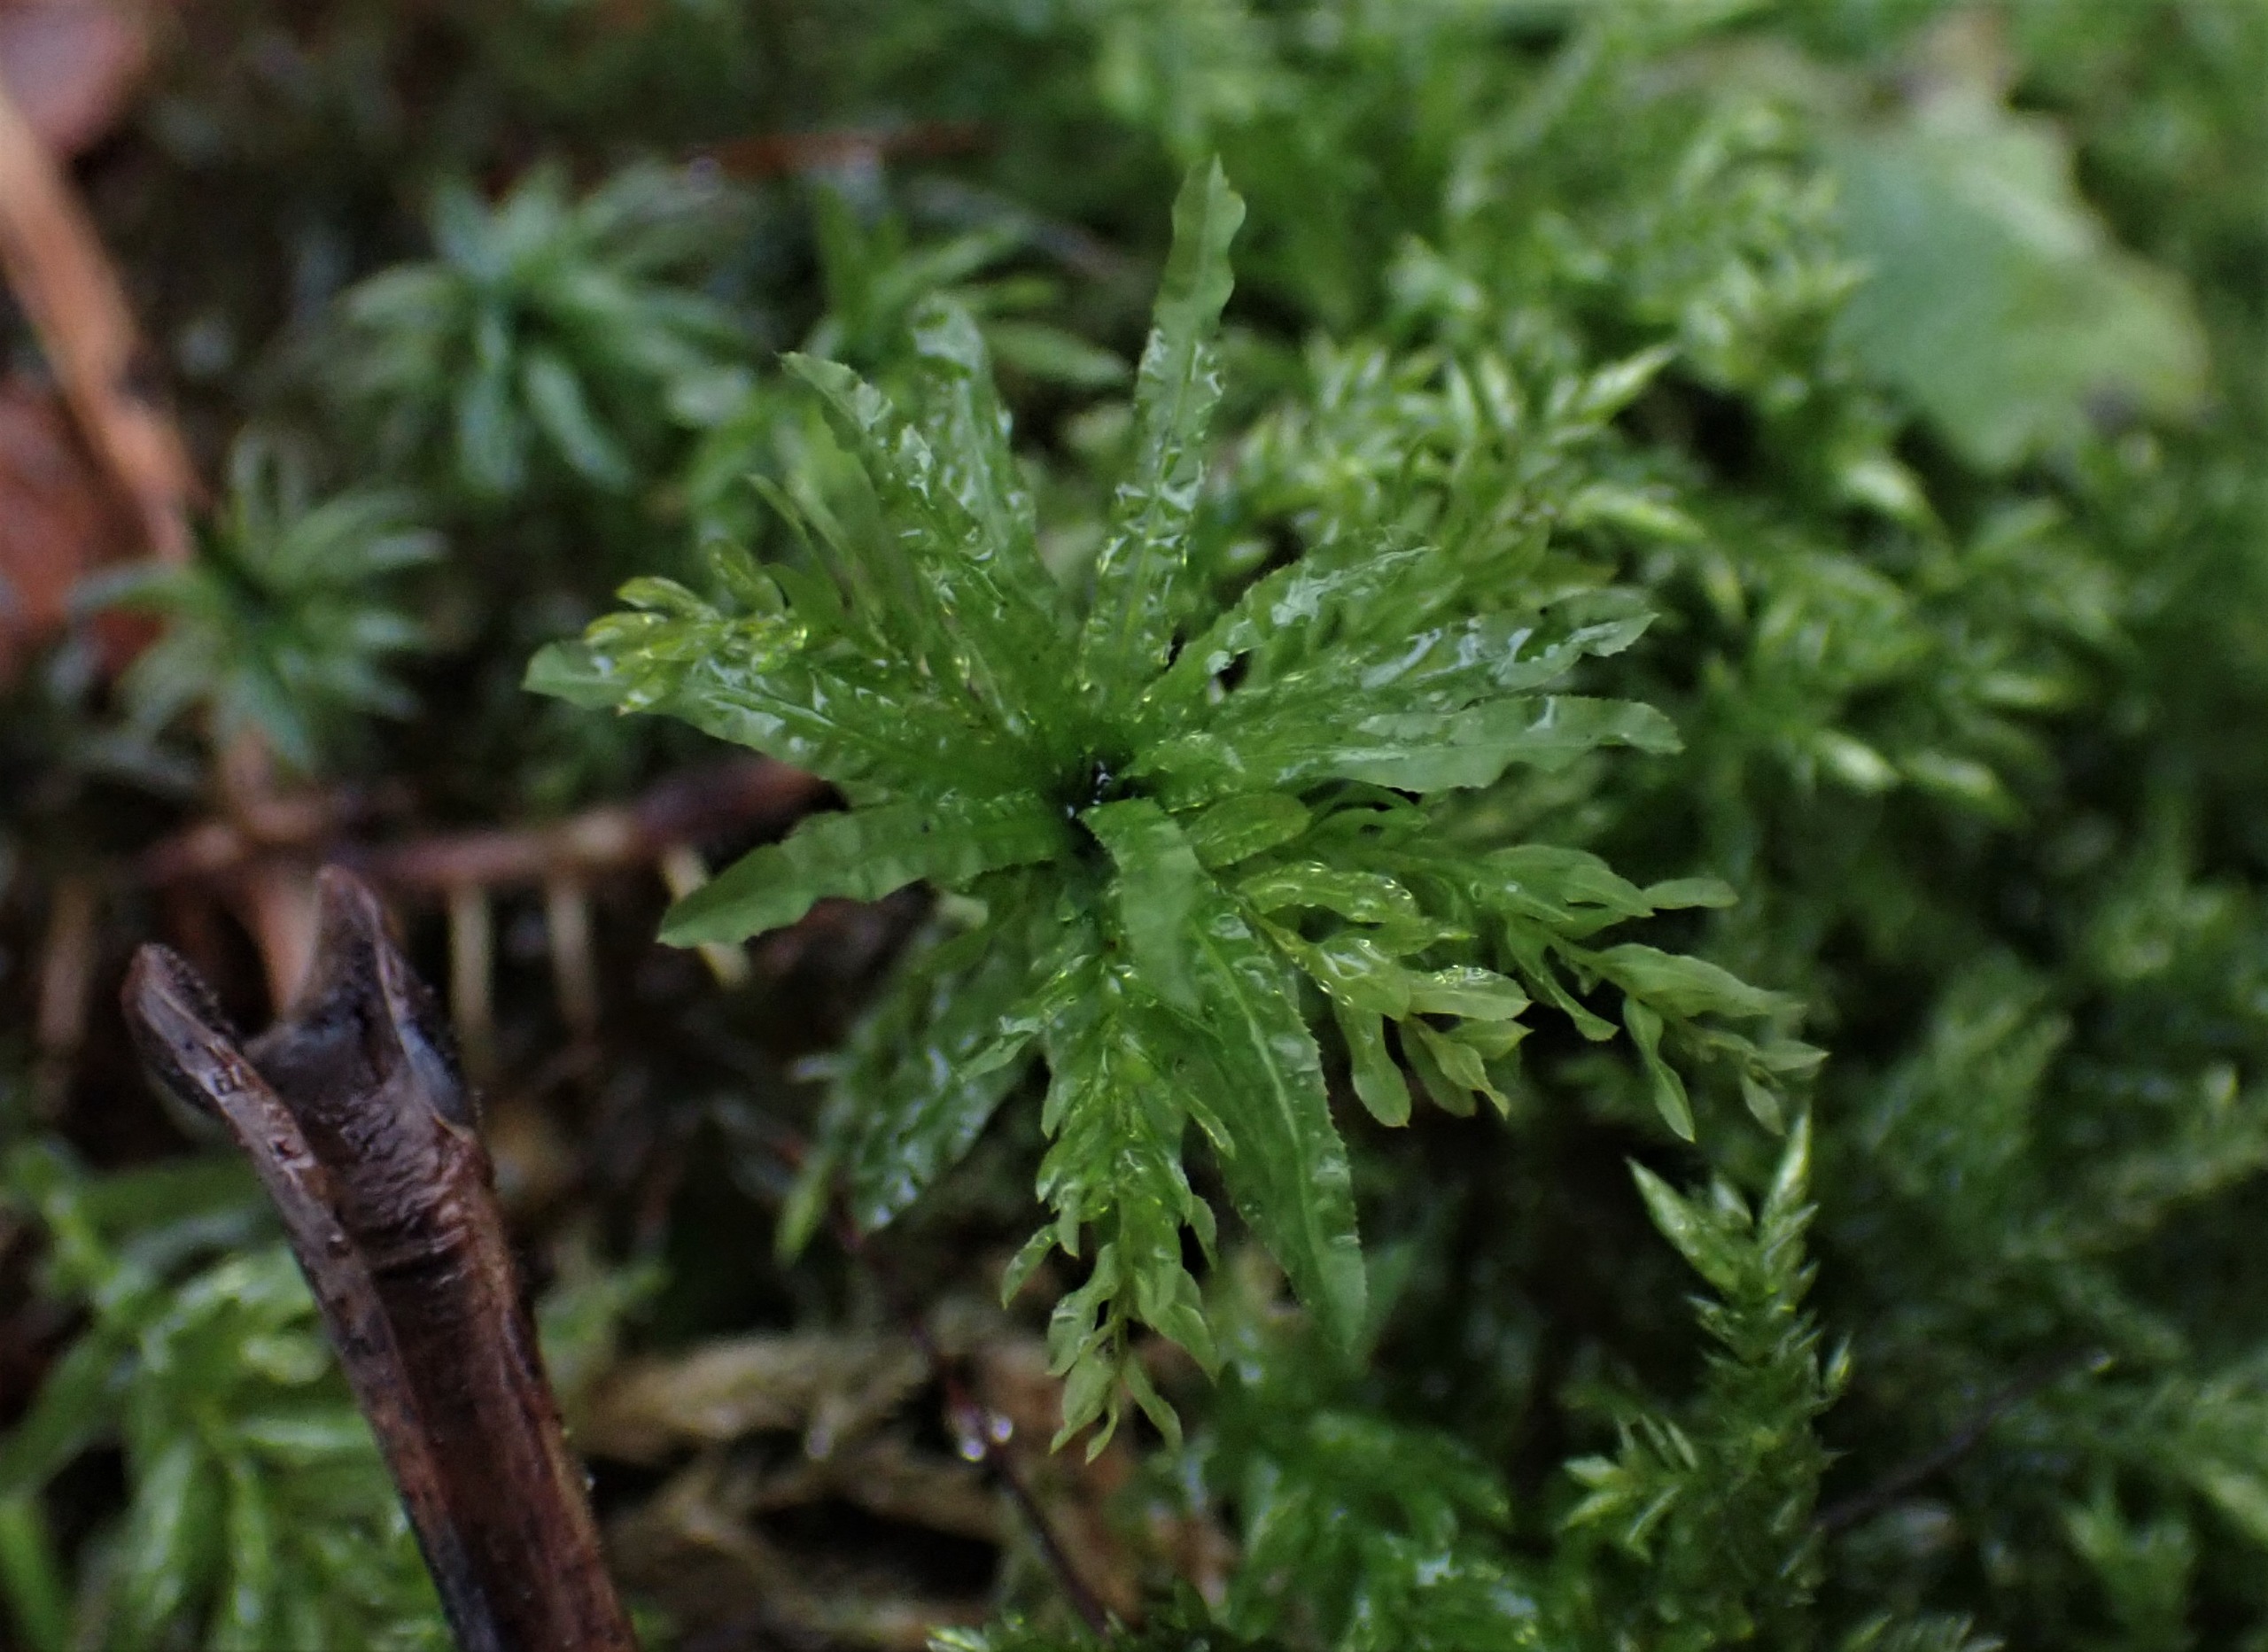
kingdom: Plantae
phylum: Bryophyta
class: Bryopsida
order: Bryales
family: Mniaceae
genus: Plagiomnium
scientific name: Plagiomnium undulatum
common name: Bølget krybstjerne
